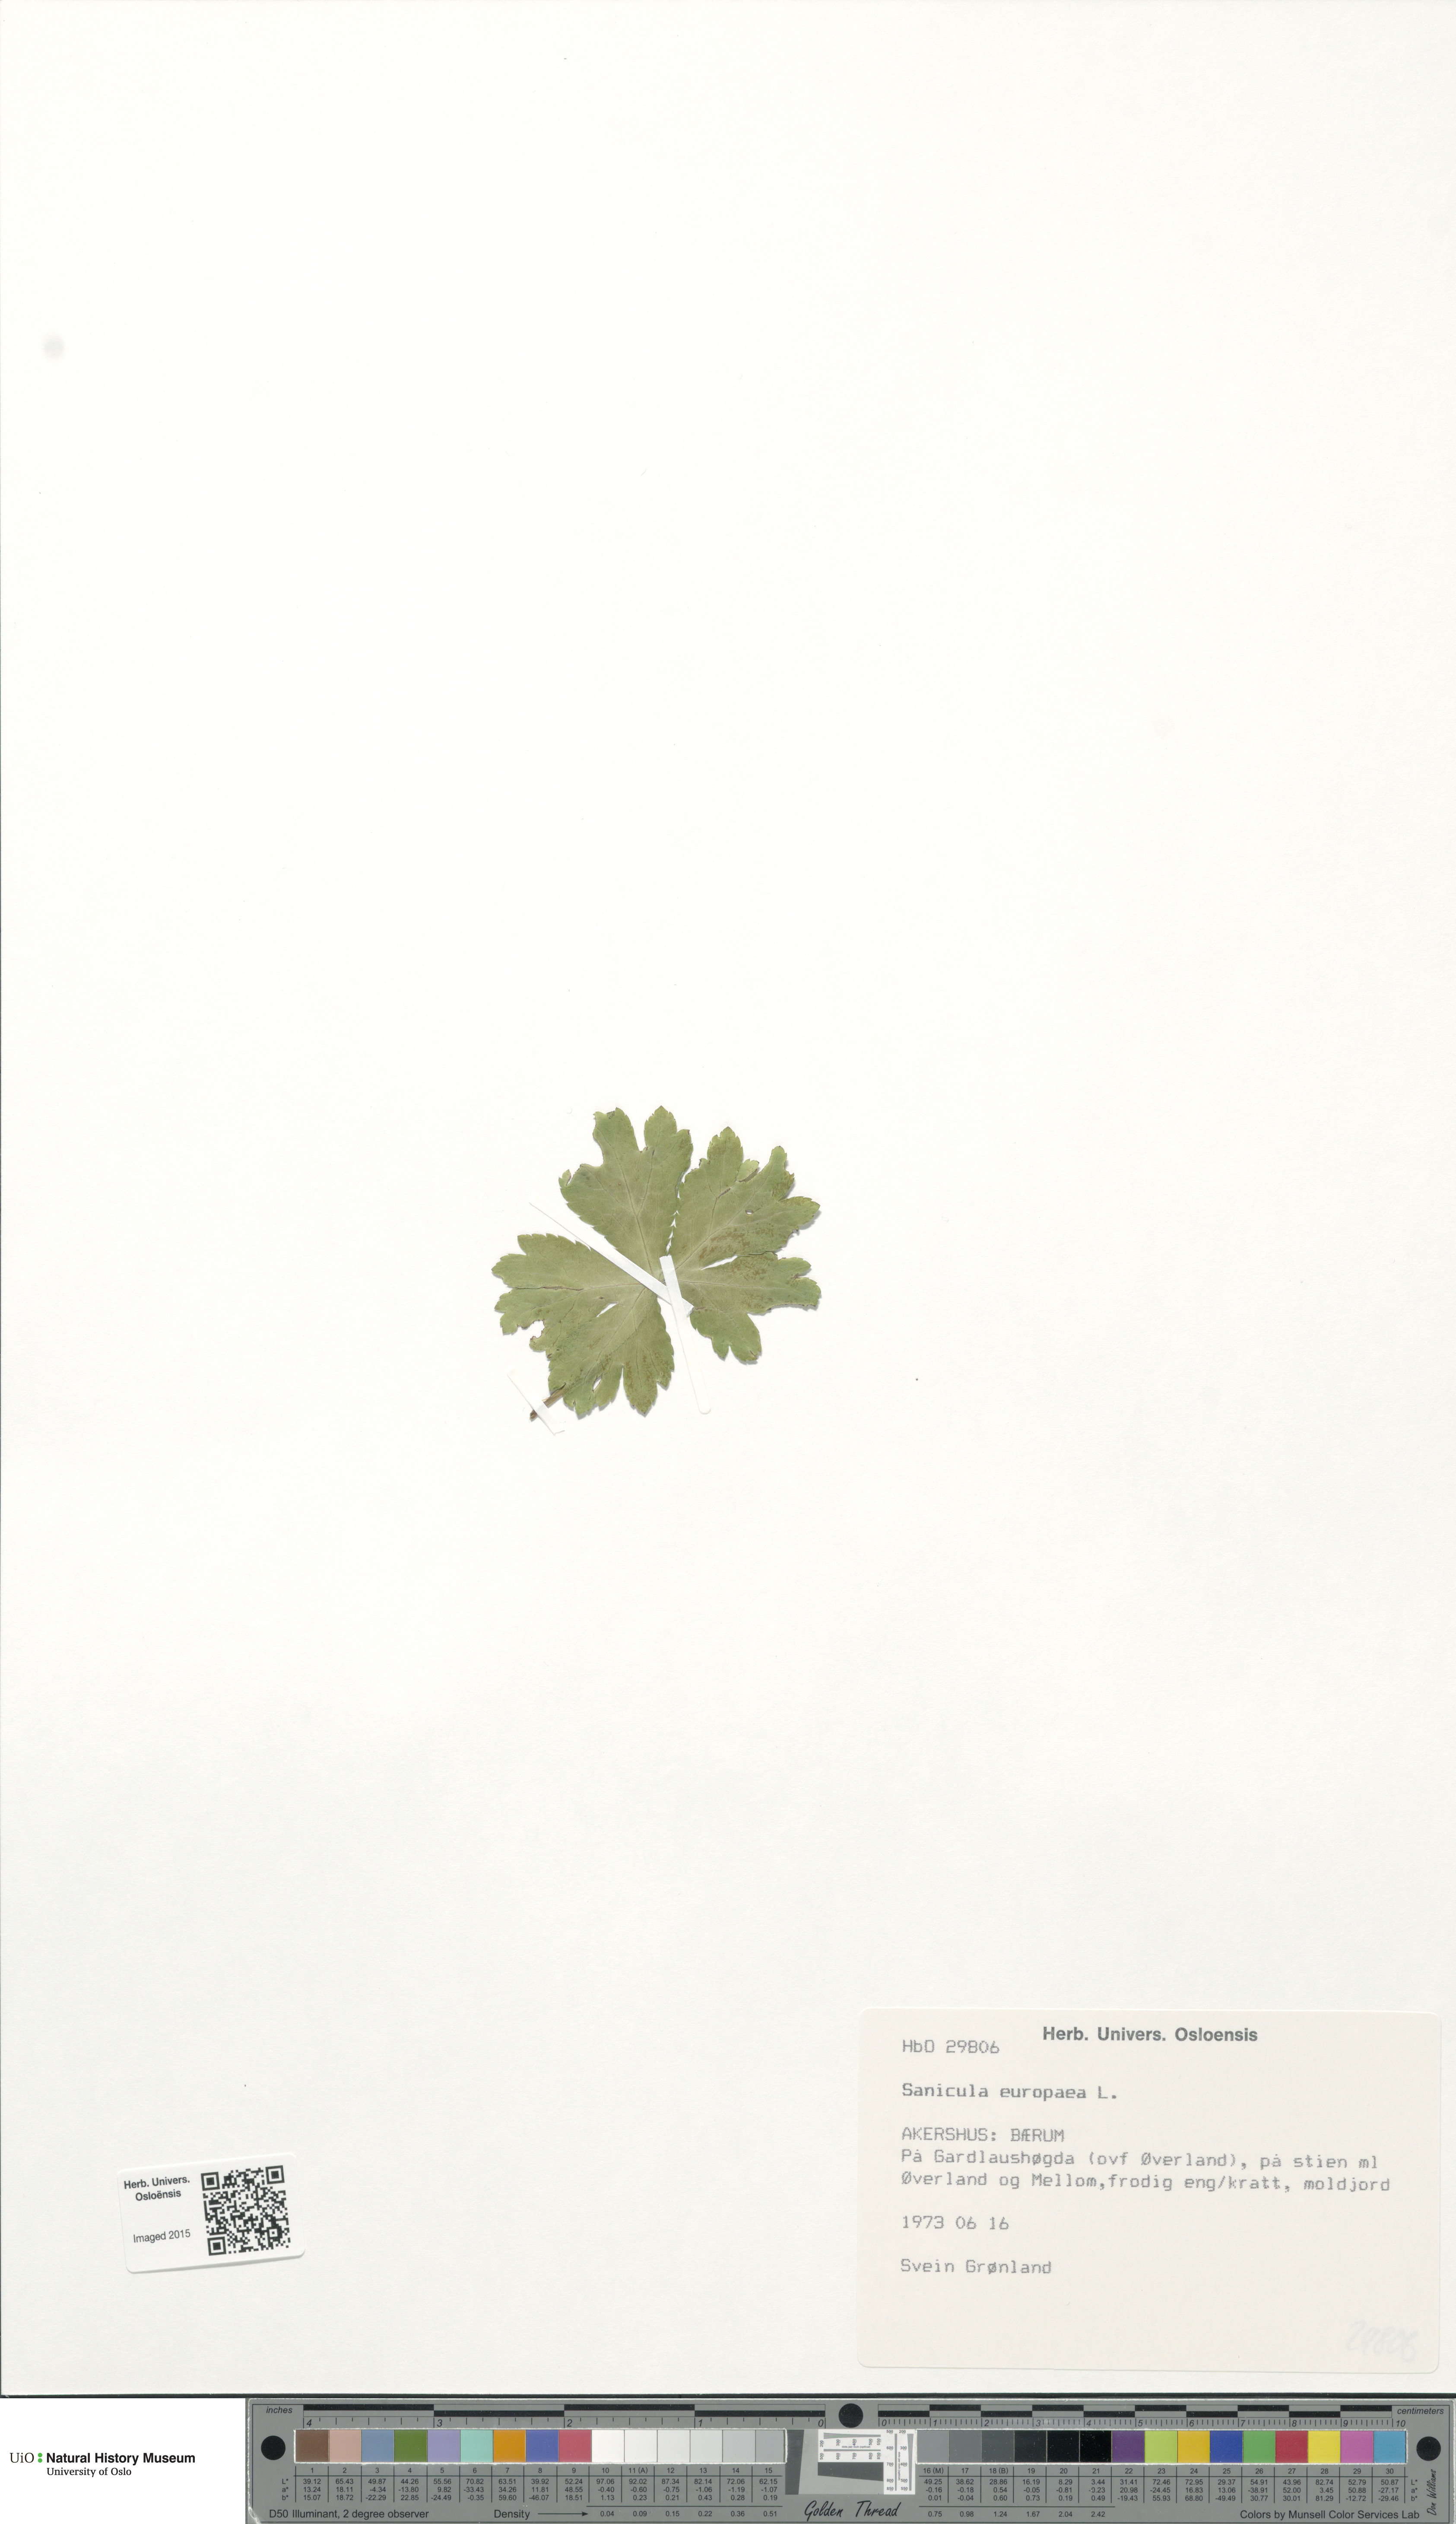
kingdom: Plantae
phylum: Tracheophyta
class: Magnoliopsida
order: Apiales
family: Apiaceae
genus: Sanicula
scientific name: Sanicula europaea
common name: Sanicle
